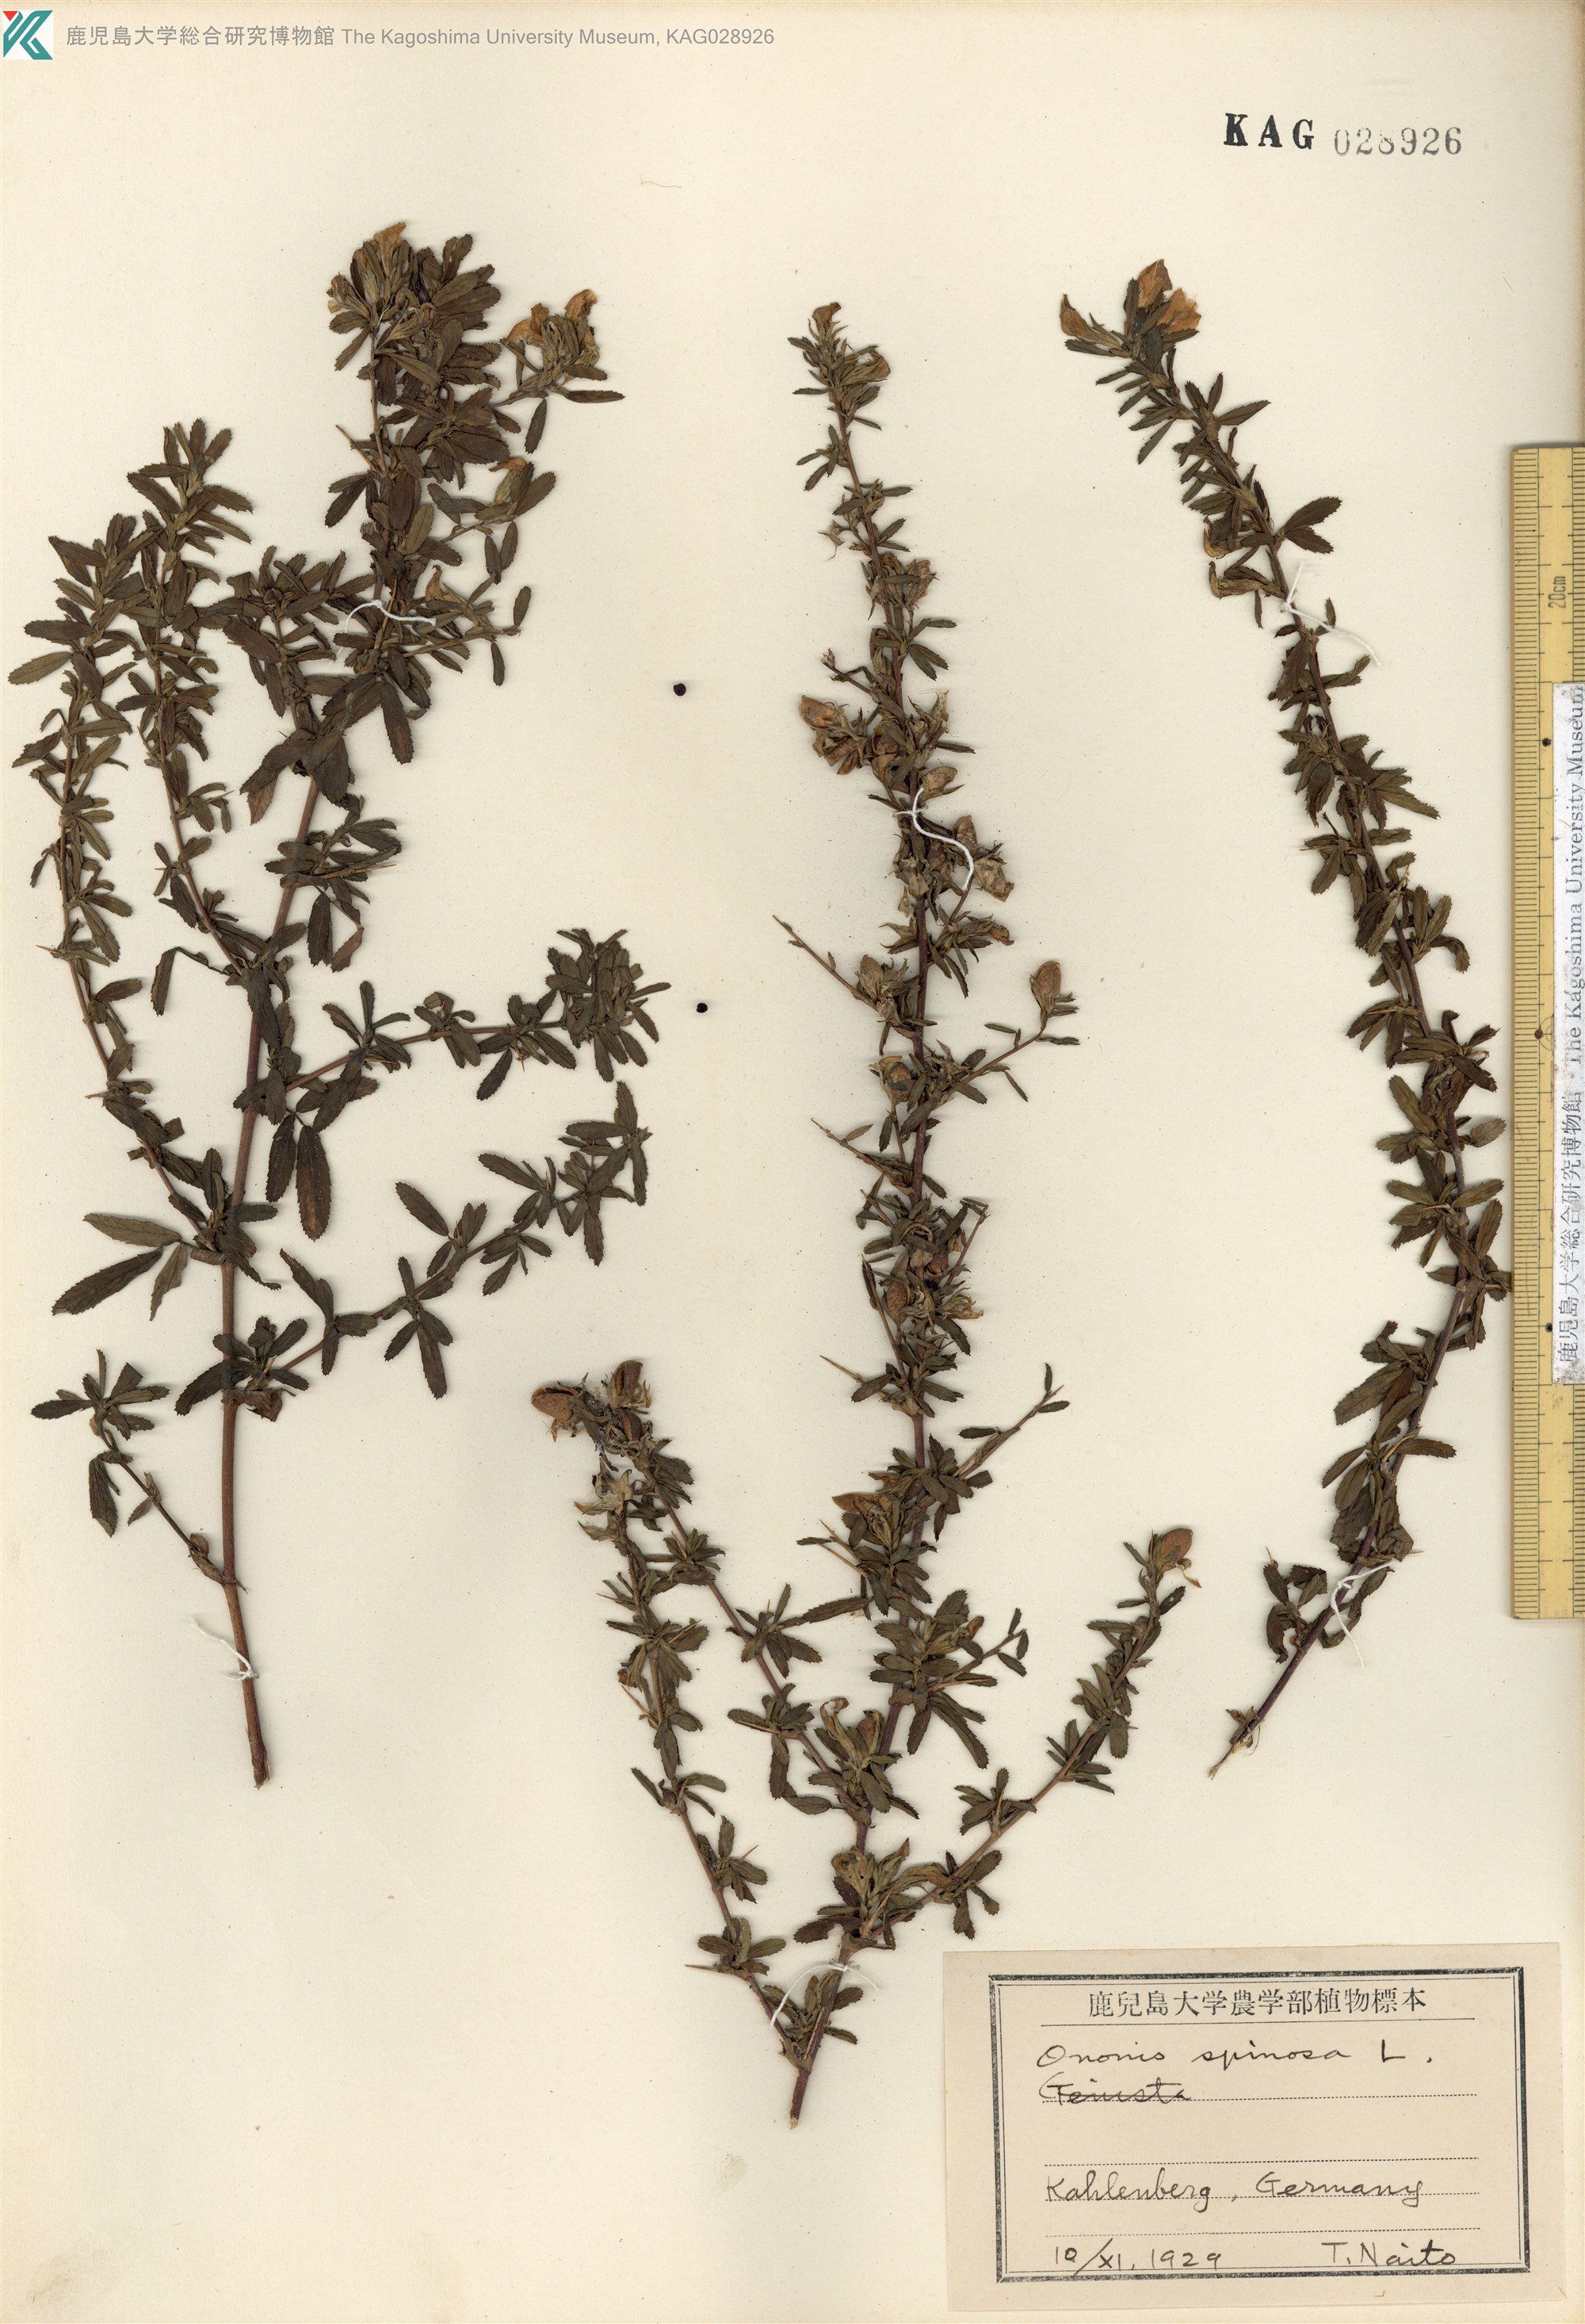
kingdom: Plantae
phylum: Tracheophyta
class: Magnoliopsida
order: Fabales
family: Fabaceae
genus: Ononis
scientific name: Ononis spinosa
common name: Spiny restharrow
